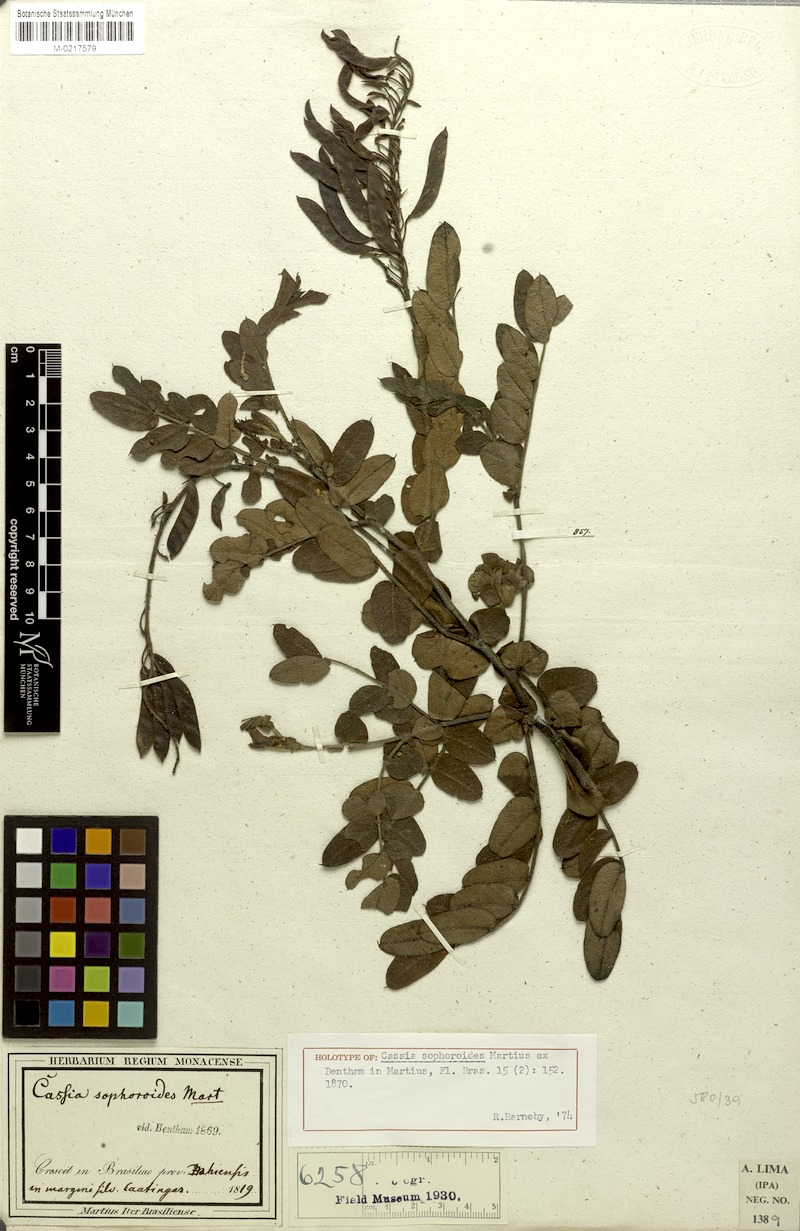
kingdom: Plantae
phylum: Tracheophyta
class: Magnoliopsida
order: Fabales
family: Fabaceae
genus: Chamaecrista
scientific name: Chamaecrista sophoroides
